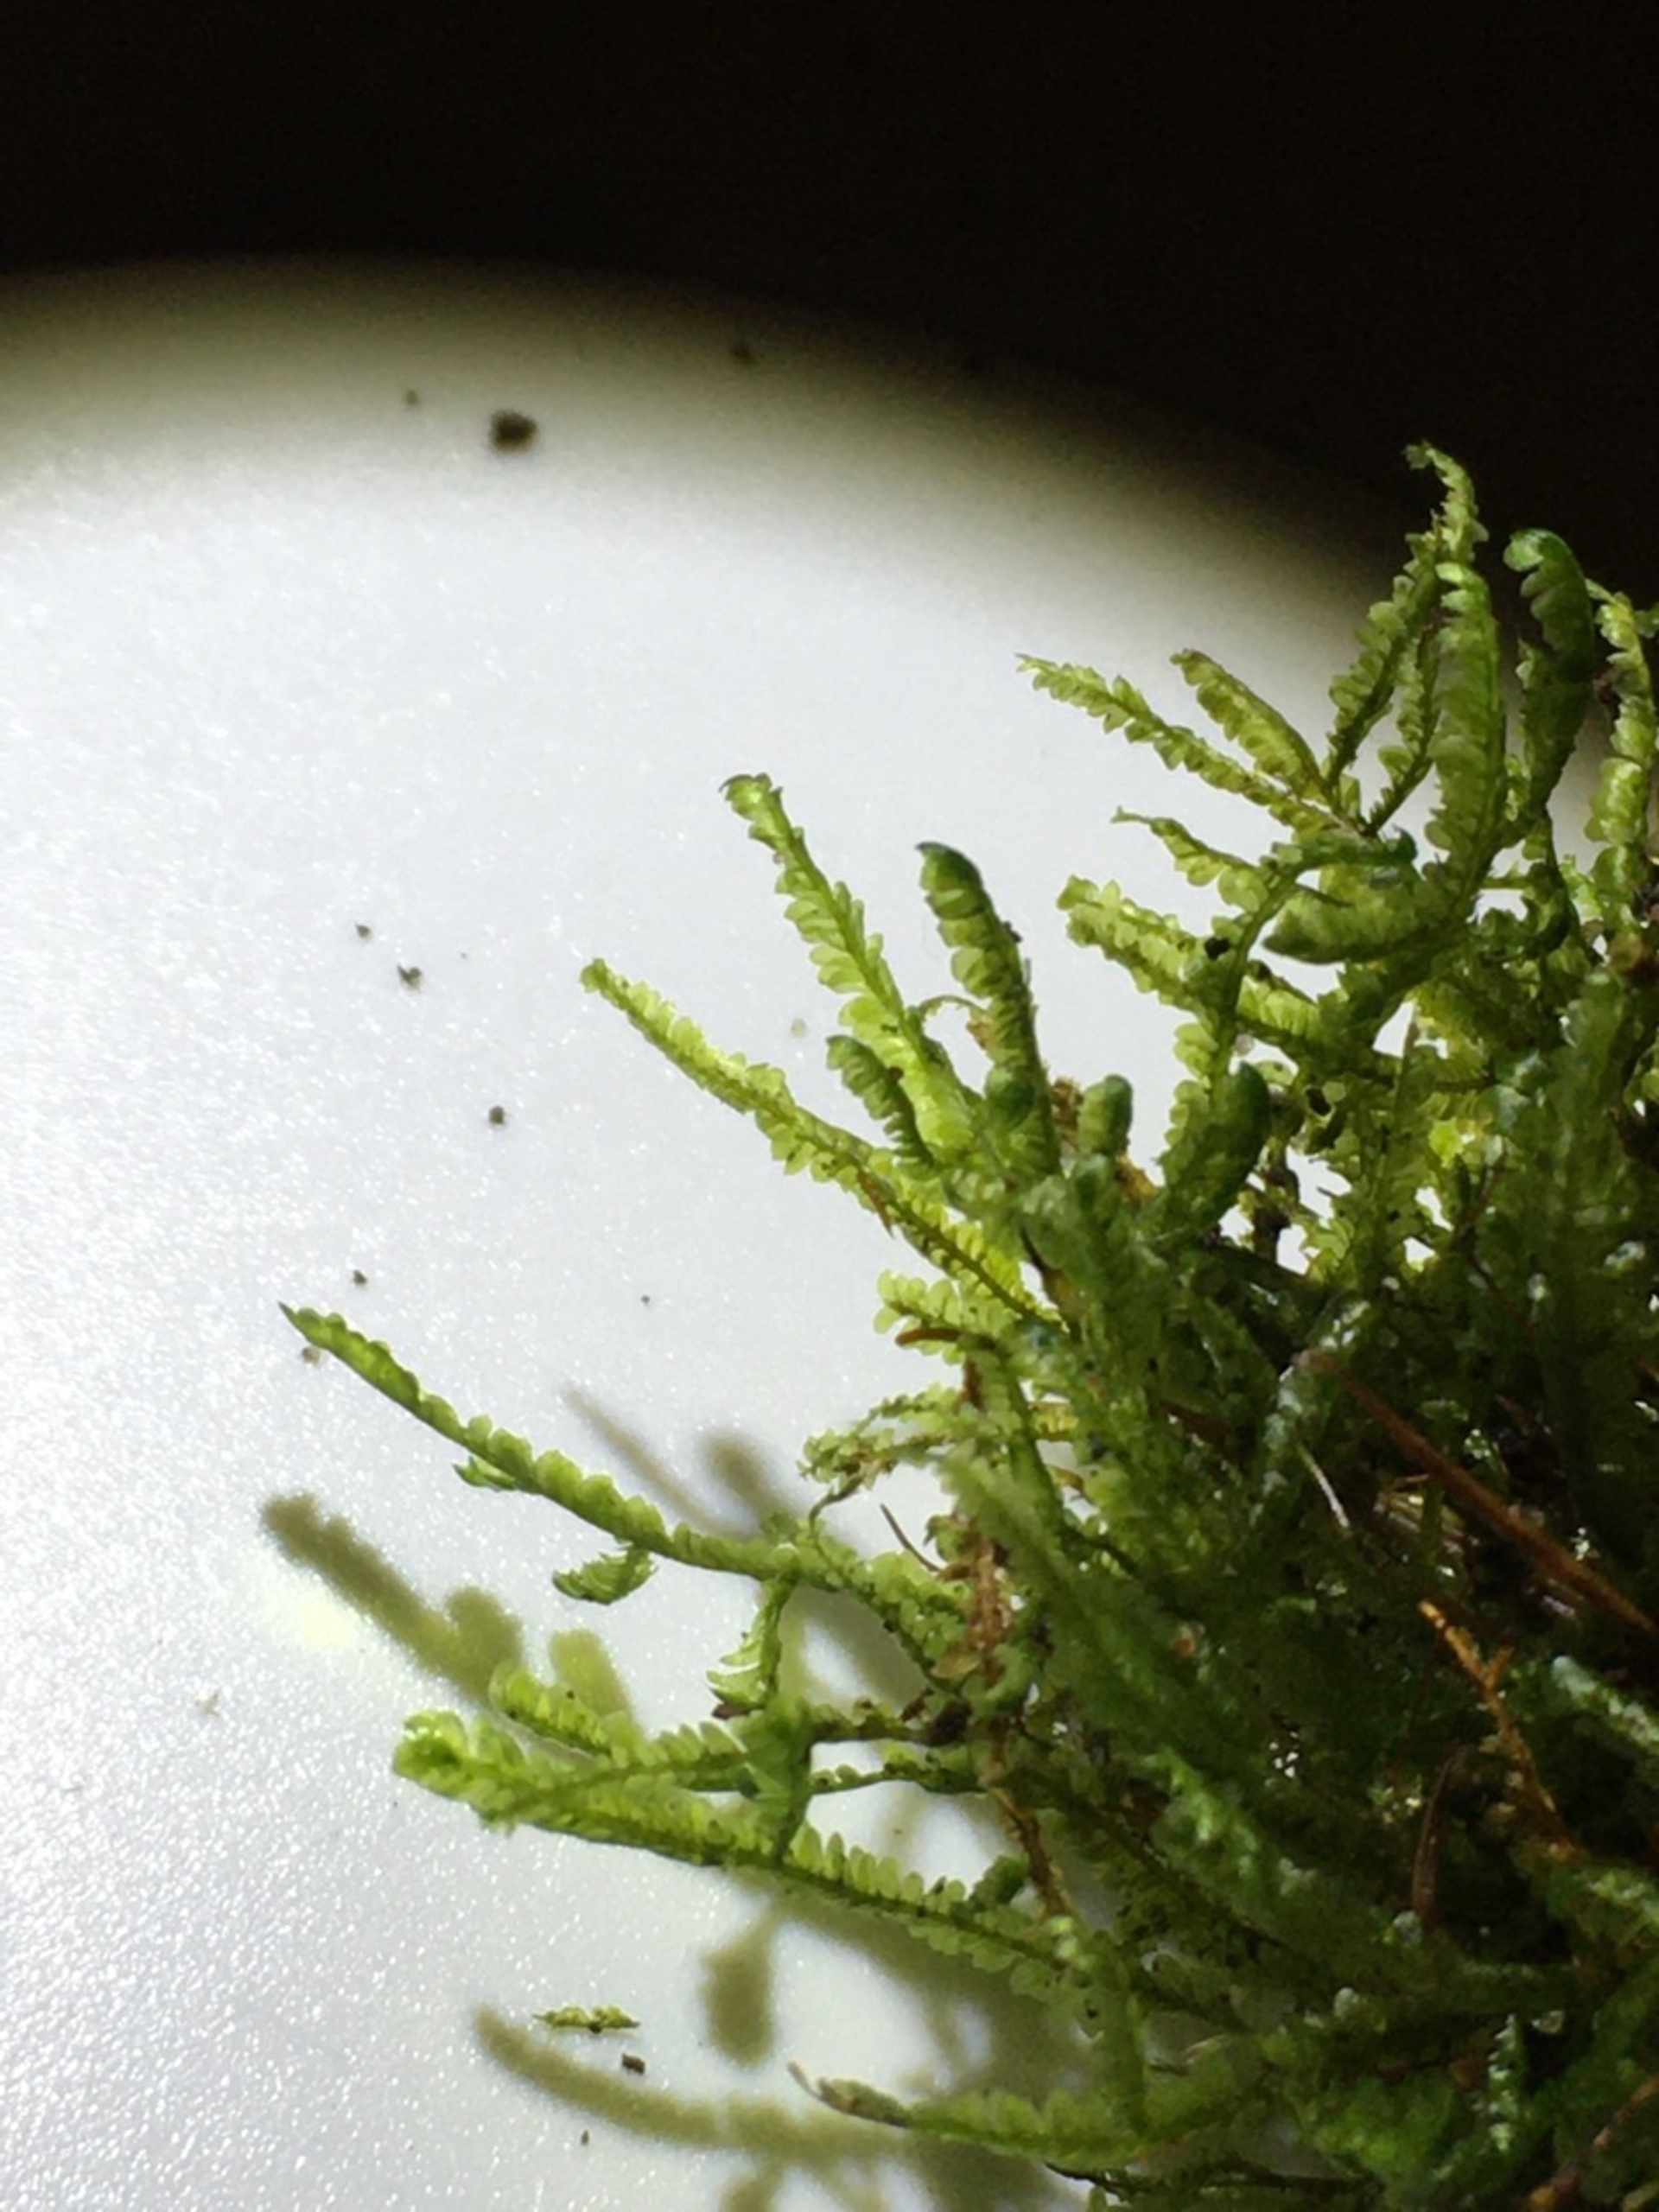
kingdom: Plantae
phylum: Bryophyta
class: Bryopsida
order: Hypnales
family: Neckeraceae
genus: Homalia
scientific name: Homalia trichomanoides
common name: Skov-tungemos
